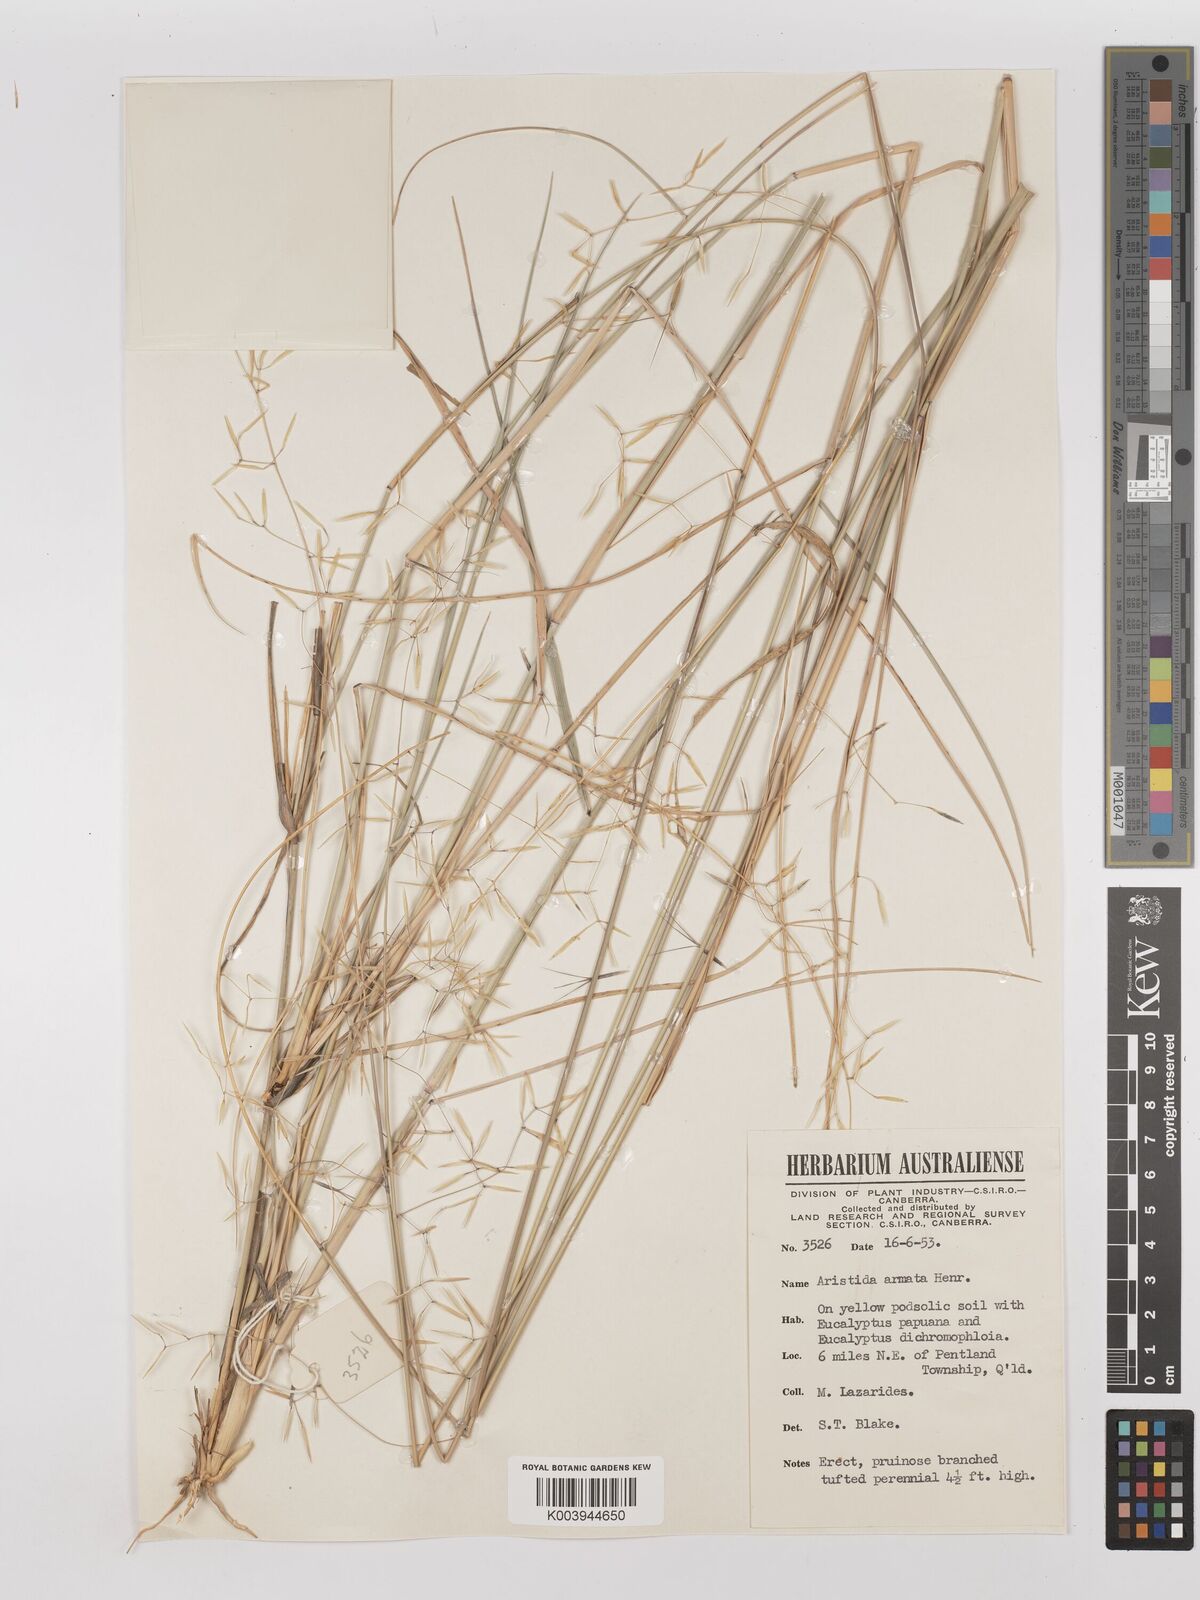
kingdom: Plantae
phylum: Tracheophyta
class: Liliopsida
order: Poales
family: Poaceae
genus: Aristida
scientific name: Aristida calycina
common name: Dark wire grass
